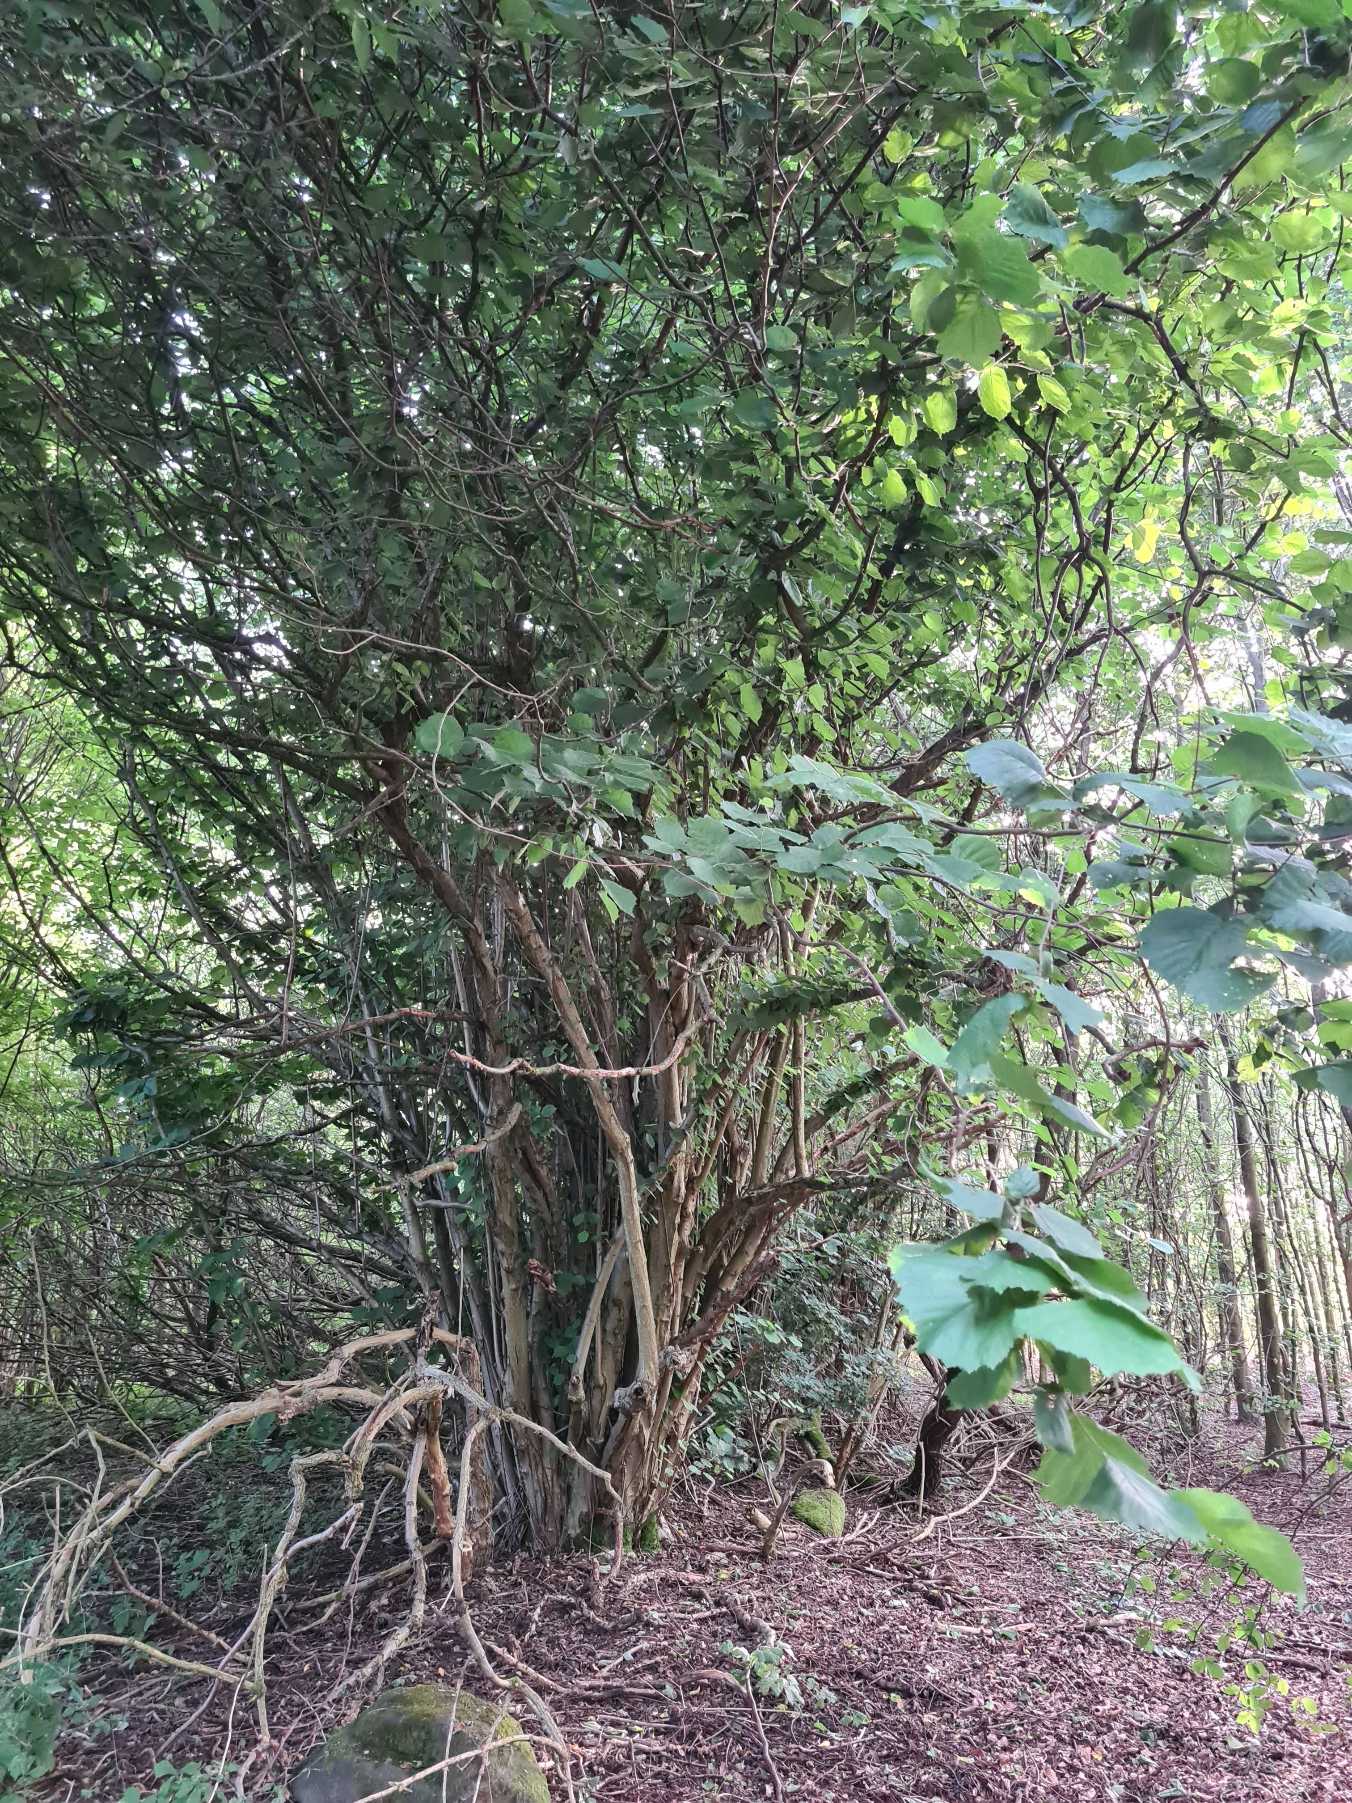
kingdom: Plantae
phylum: Tracheophyta
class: Magnoliopsida
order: Fagales
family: Betulaceae
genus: Corylus
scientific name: Corylus avellana
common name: Hassel
